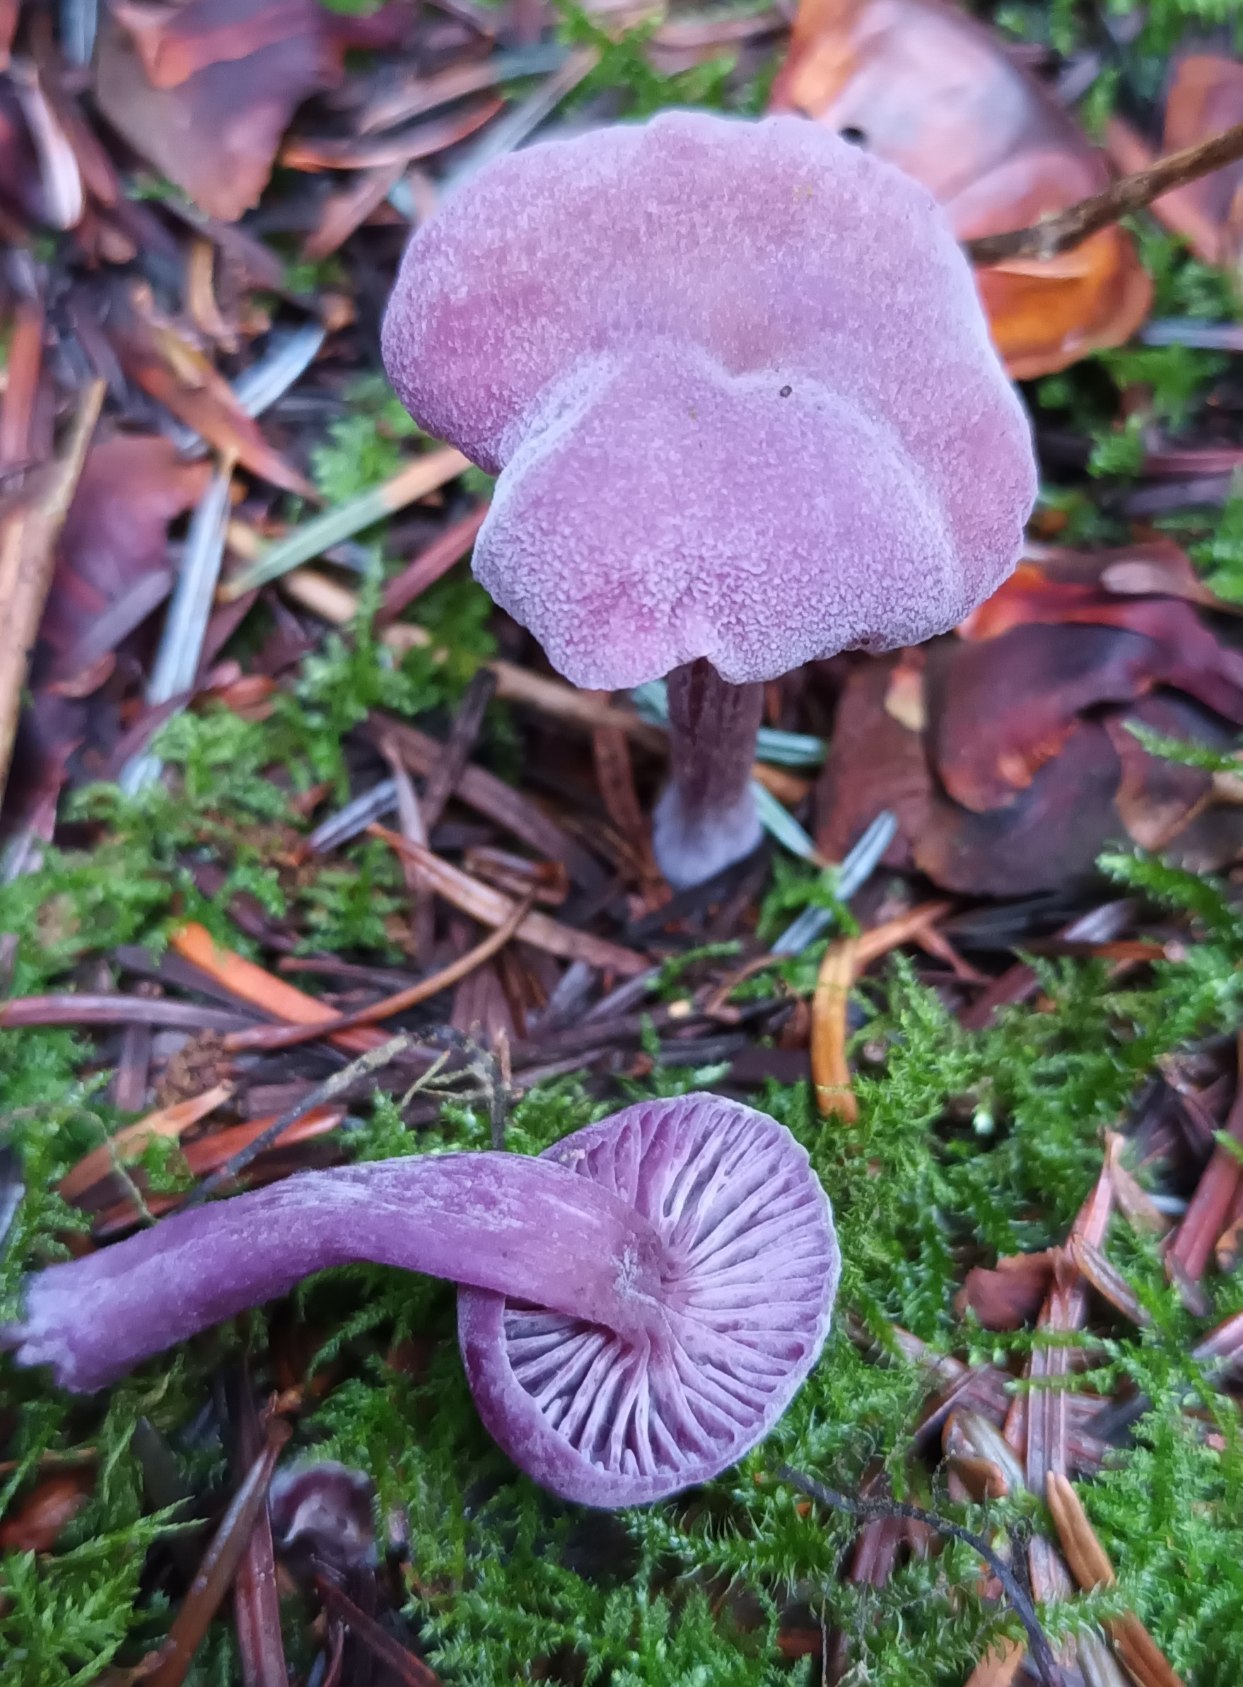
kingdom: Fungi
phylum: Basidiomycota
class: Agaricomycetes
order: Agaricales
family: Hydnangiaceae
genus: Laccaria
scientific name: Laccaria amethystina
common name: Violet ametysthat
